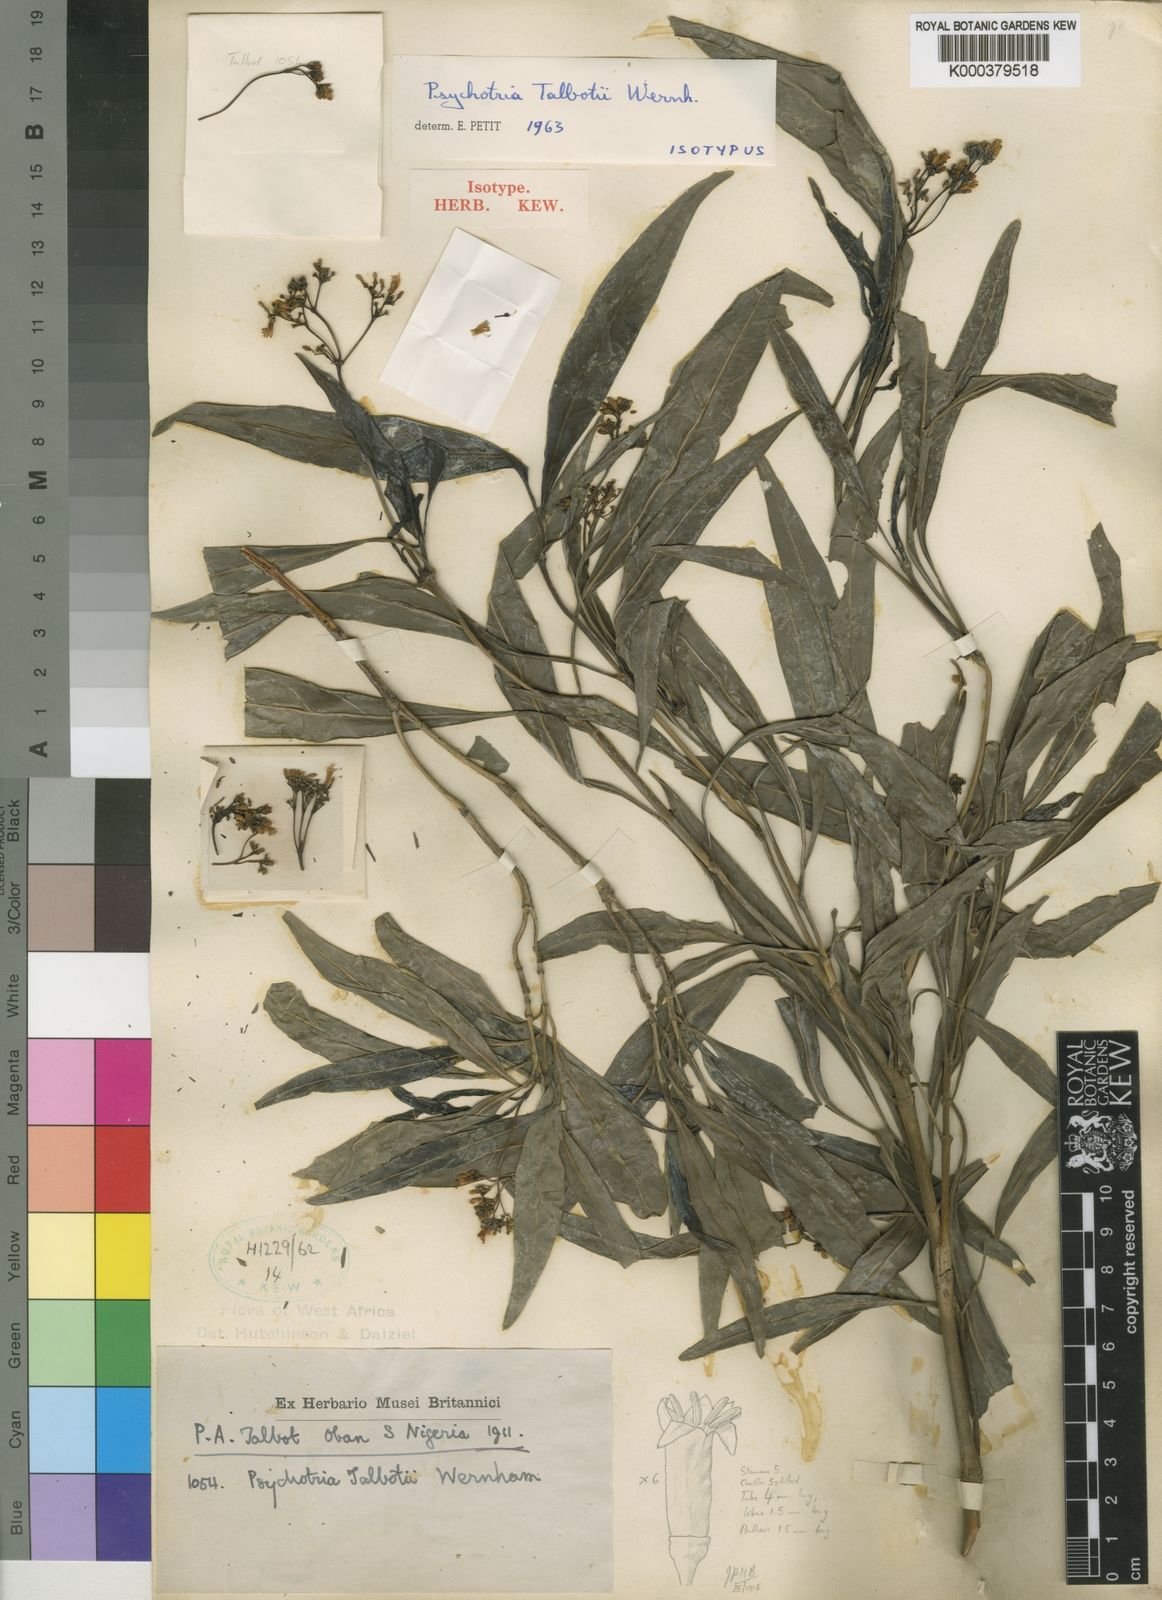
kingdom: Plantae
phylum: Tracheophyta
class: Magnoliopsida
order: Gentianales
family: Rubiaceae
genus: Psychotria
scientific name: Psychotria calva
